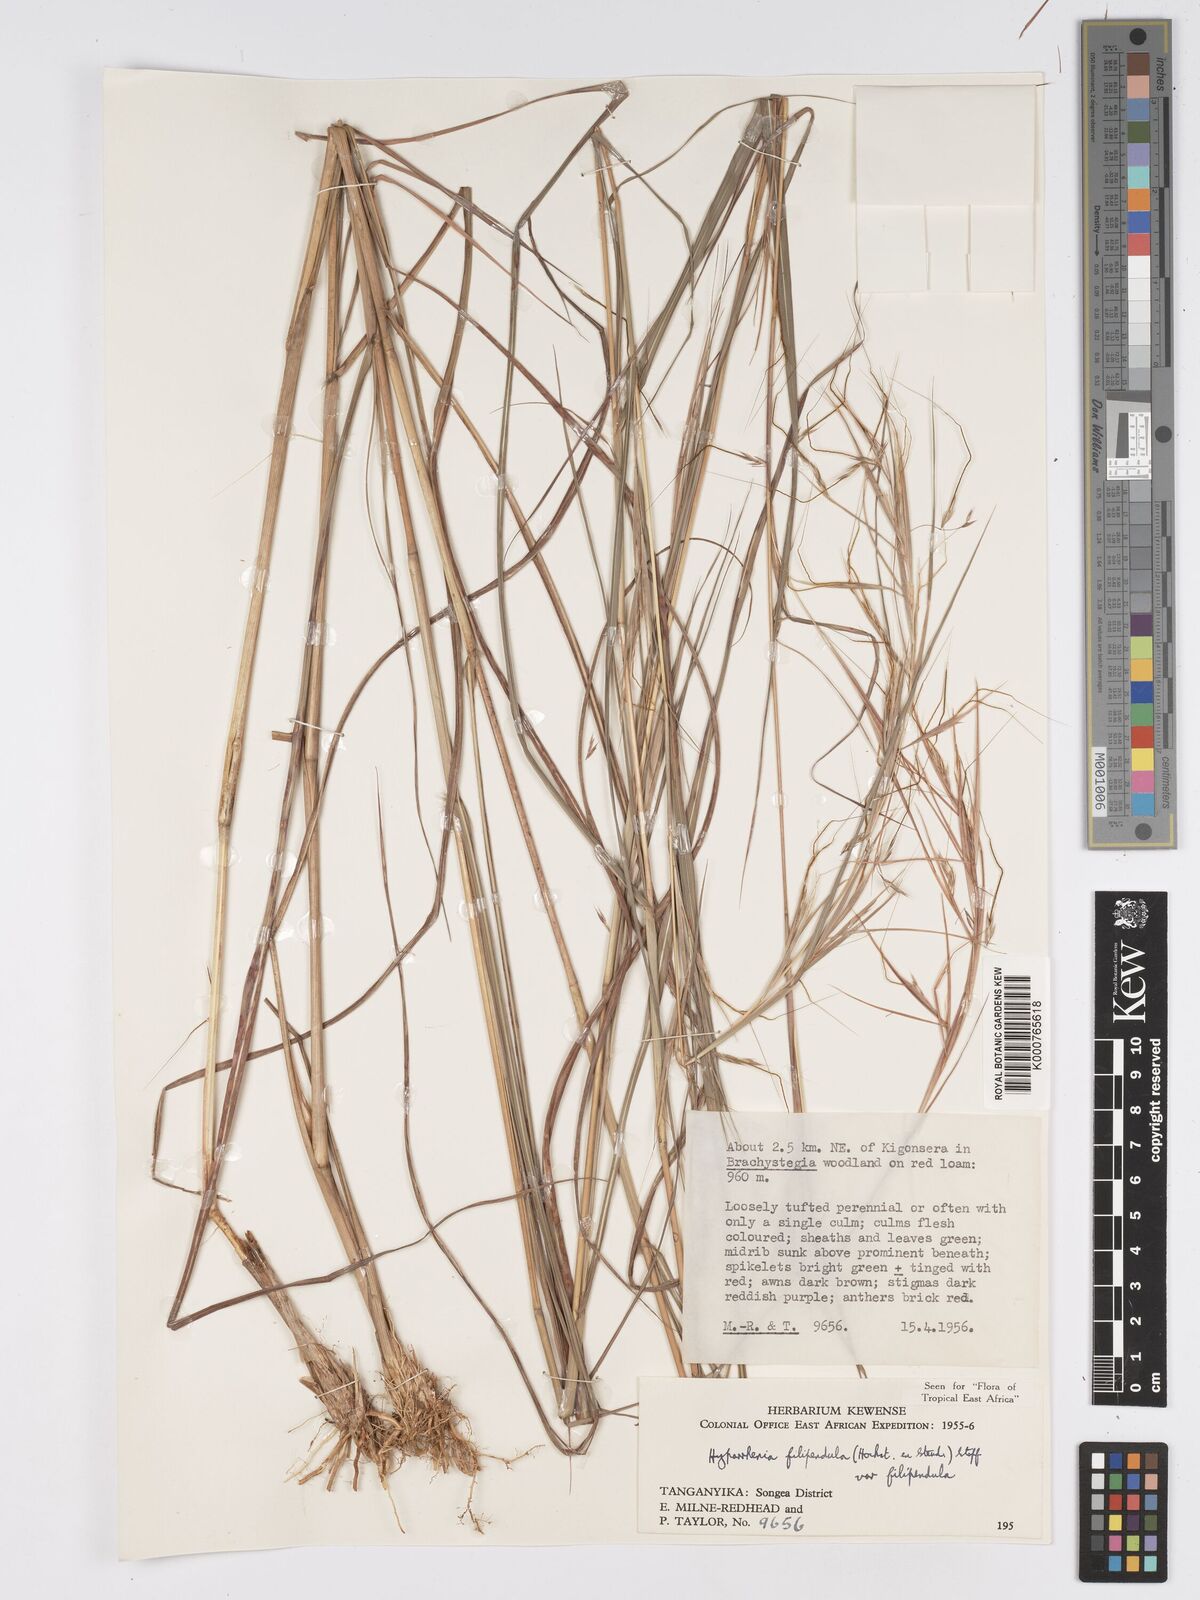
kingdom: Plantae
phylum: Tracheophyta
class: Liliopsida
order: Poales
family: Poaceae
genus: Hyparrhenia
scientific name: Hyparrhenia filipendula
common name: Tambookie grass
